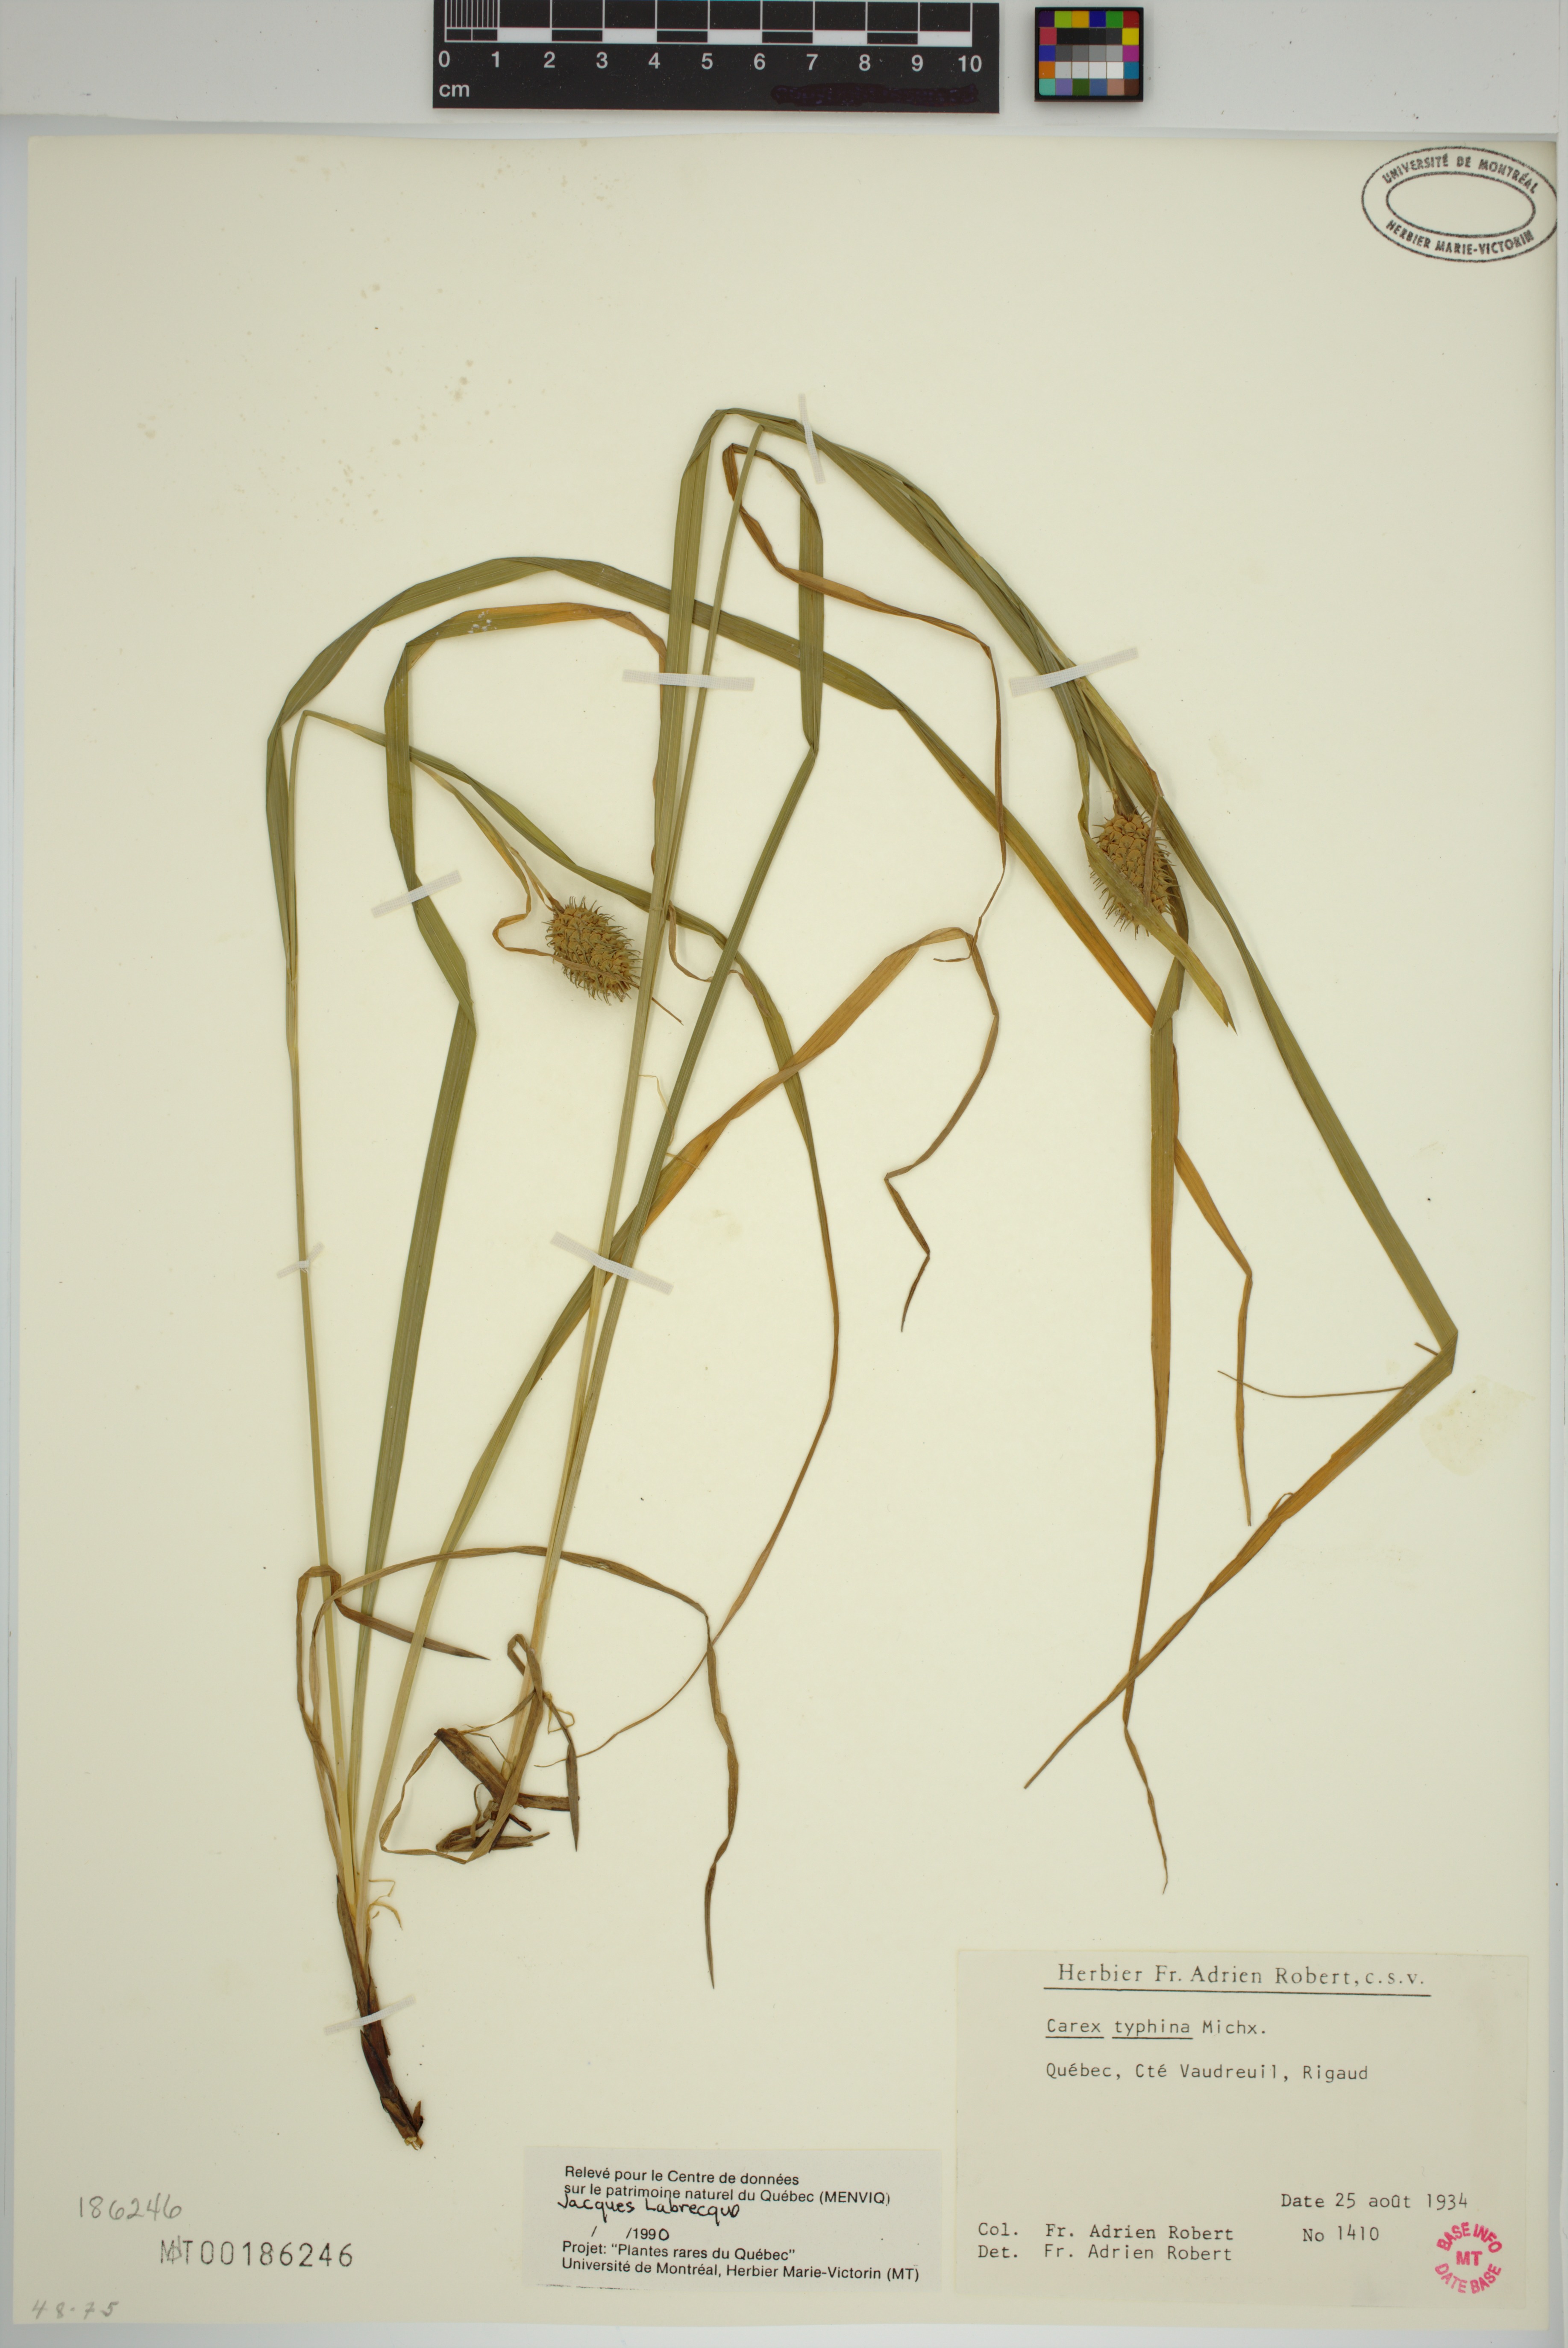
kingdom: Plantae
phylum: Tracheophyta
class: Liliopsida
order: Poales
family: Cyperaceae
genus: Carex
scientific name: Carex typhina
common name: Cattail sedge
